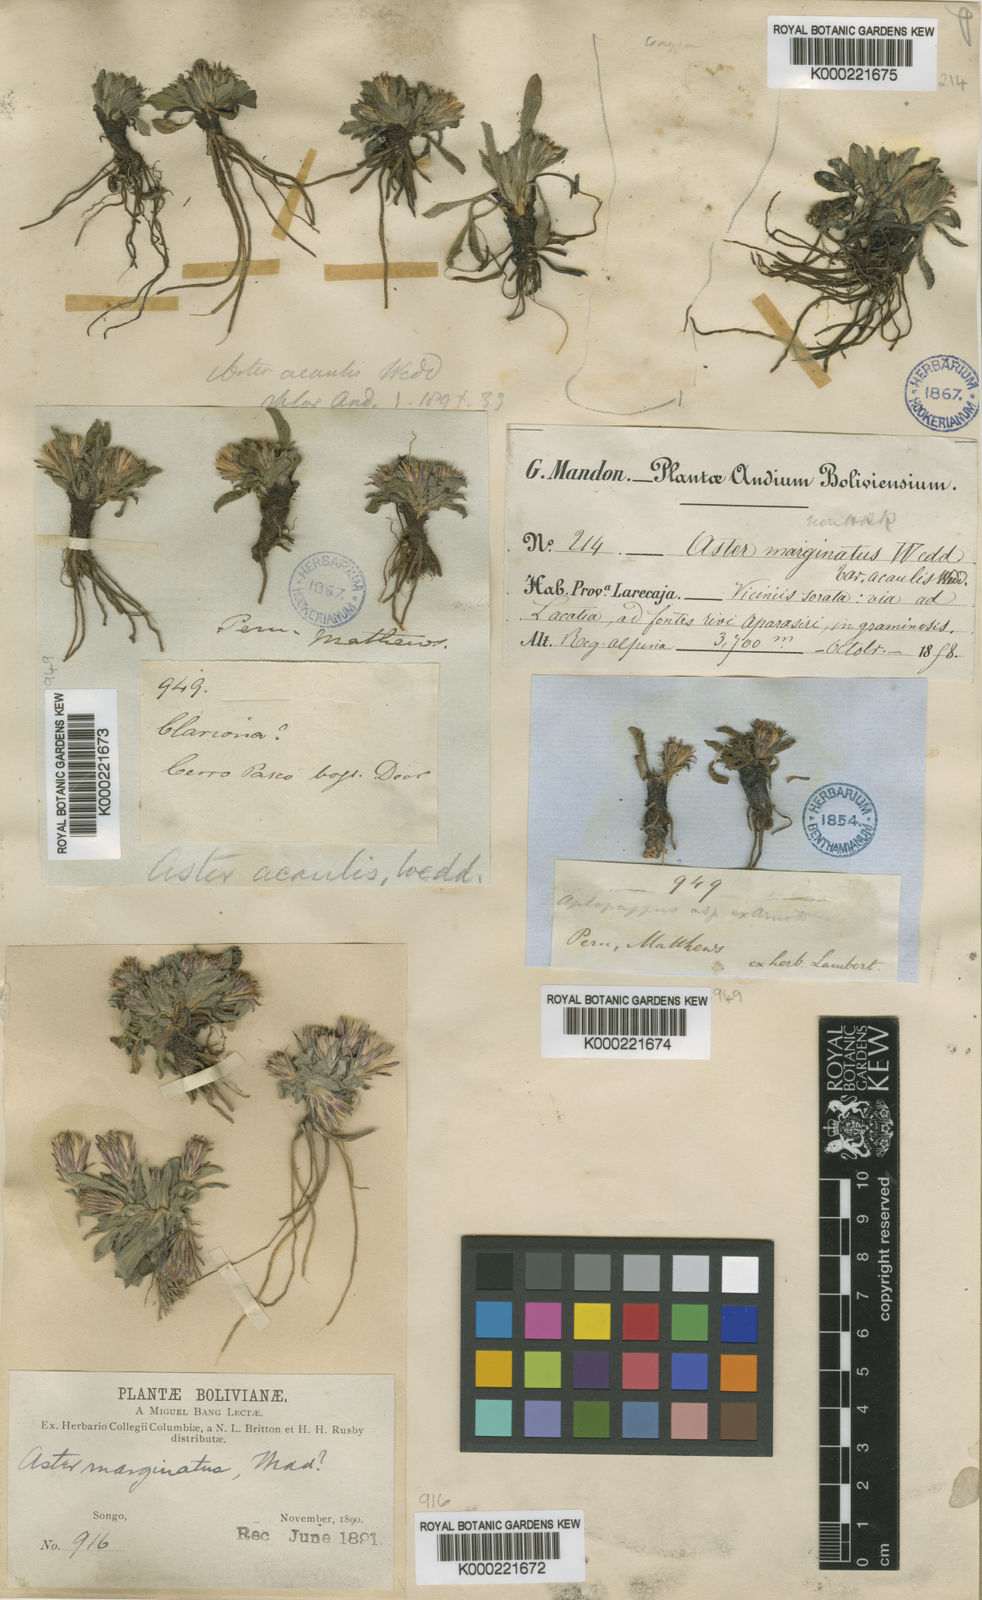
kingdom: Plantae
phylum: Tracheophyta
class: Magnoliopsida
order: Asterales
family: Asteraceae
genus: Noticastrum
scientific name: Noticastrum marginatum
